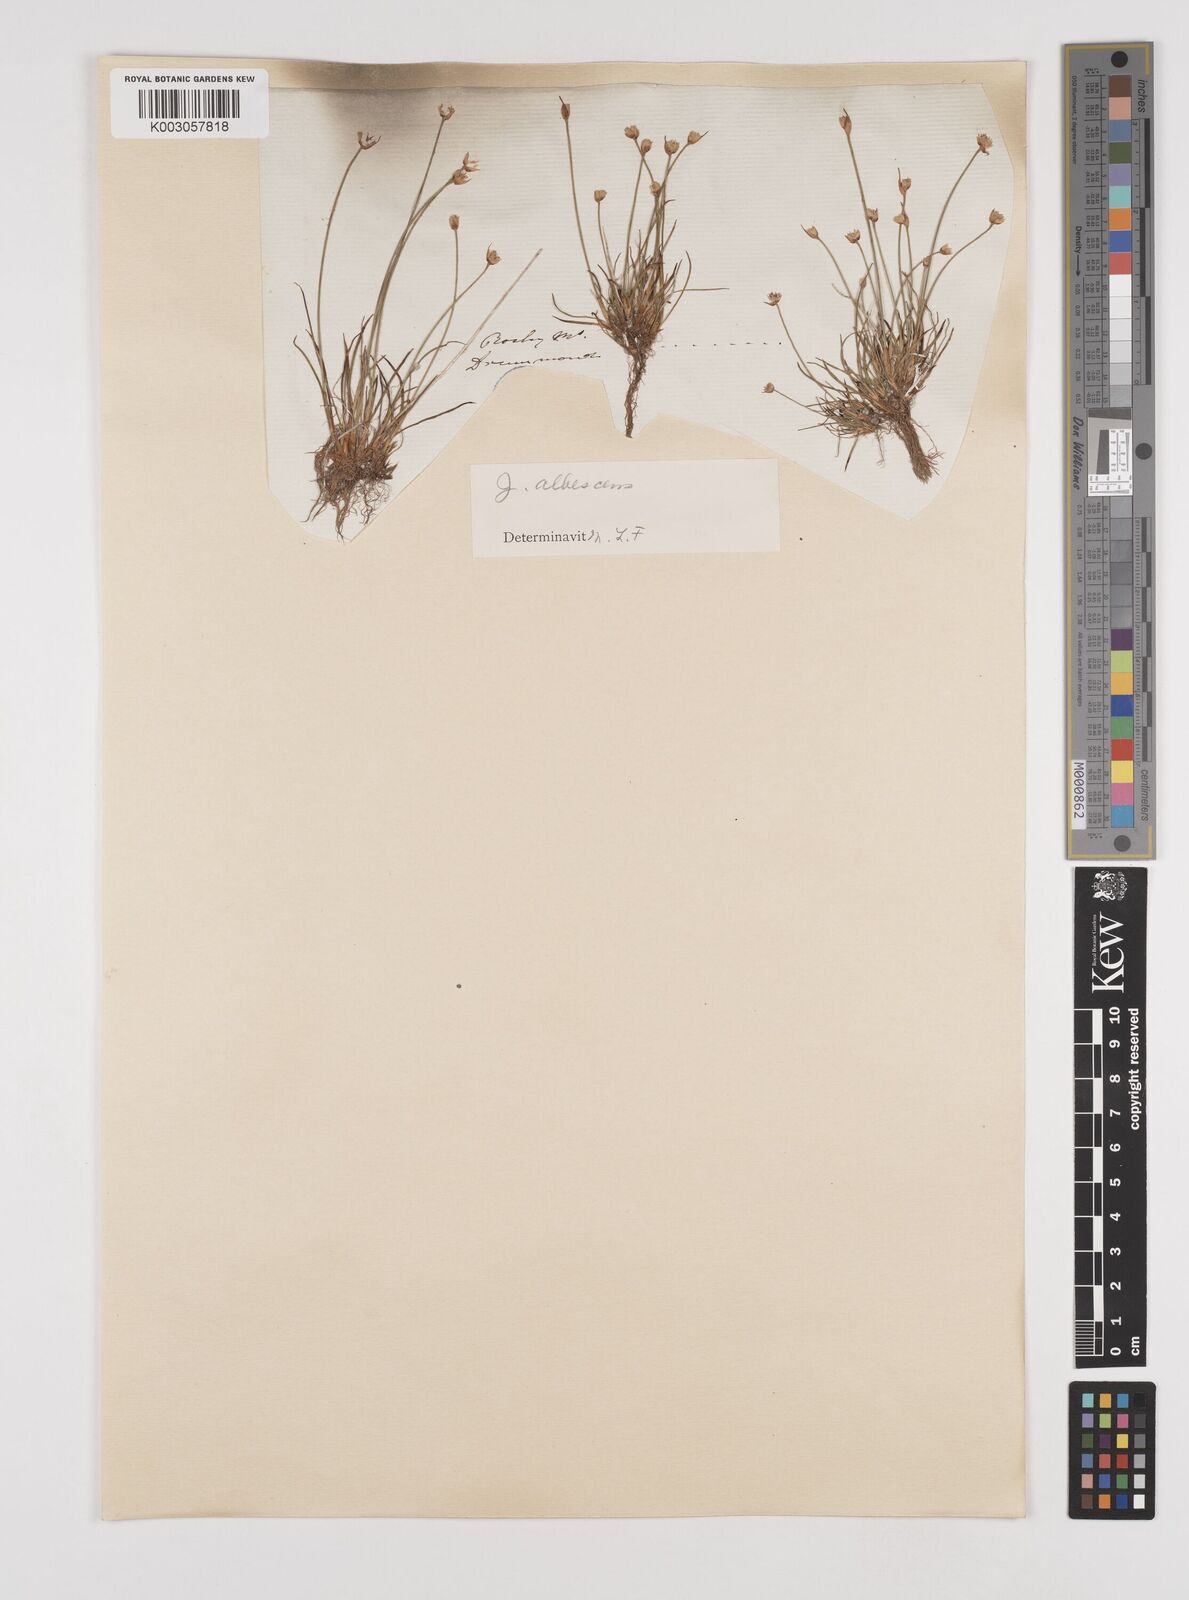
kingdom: Plantae
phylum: Tracheophyta
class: Liliopsida
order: Poales
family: Juncaceae
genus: Juncus
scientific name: Juncus albescens
